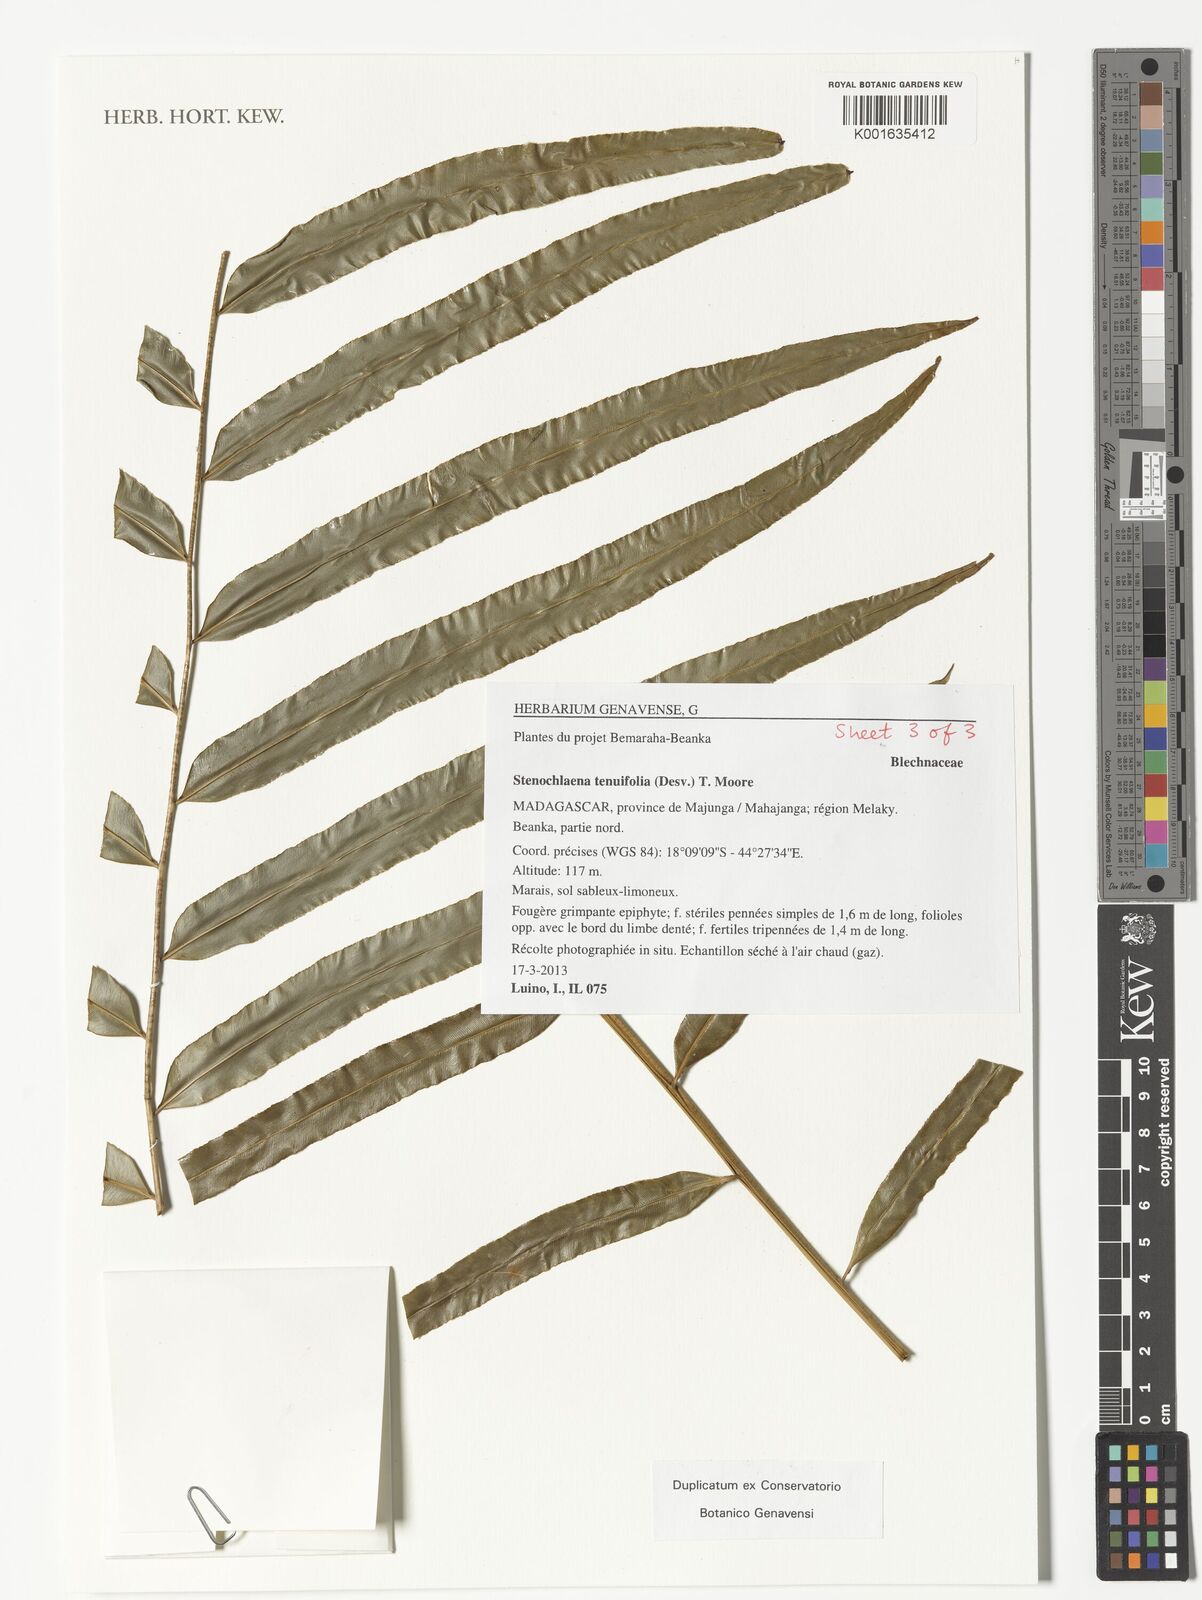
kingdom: Plantae
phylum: Tracheophyta
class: Polypodiopsida
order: Polypodiales
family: Blechnaceae
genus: Stenochlaena
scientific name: Stenochlaena tenuifolia
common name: Giant vine fern
